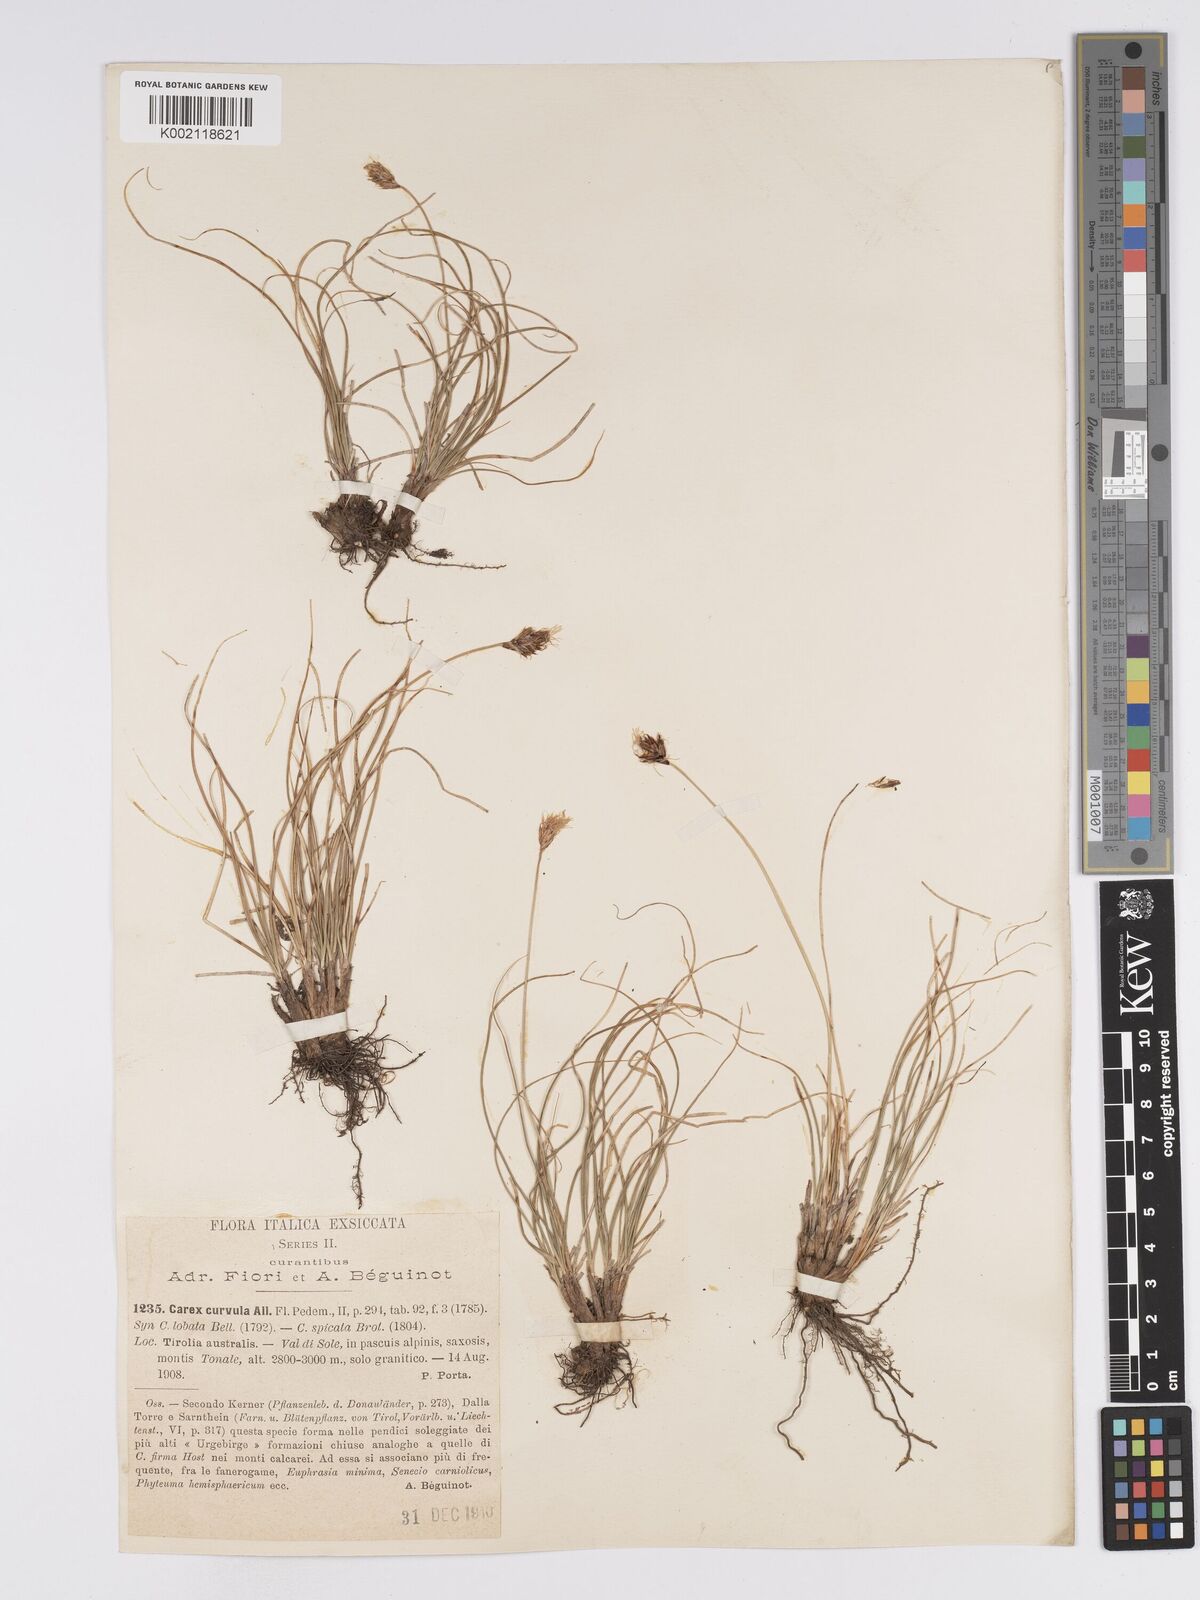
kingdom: Plantae
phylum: Tracheophyta
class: Liliopsida
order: Poales
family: Cyperaceae
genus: Carex
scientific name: Carex curvula
